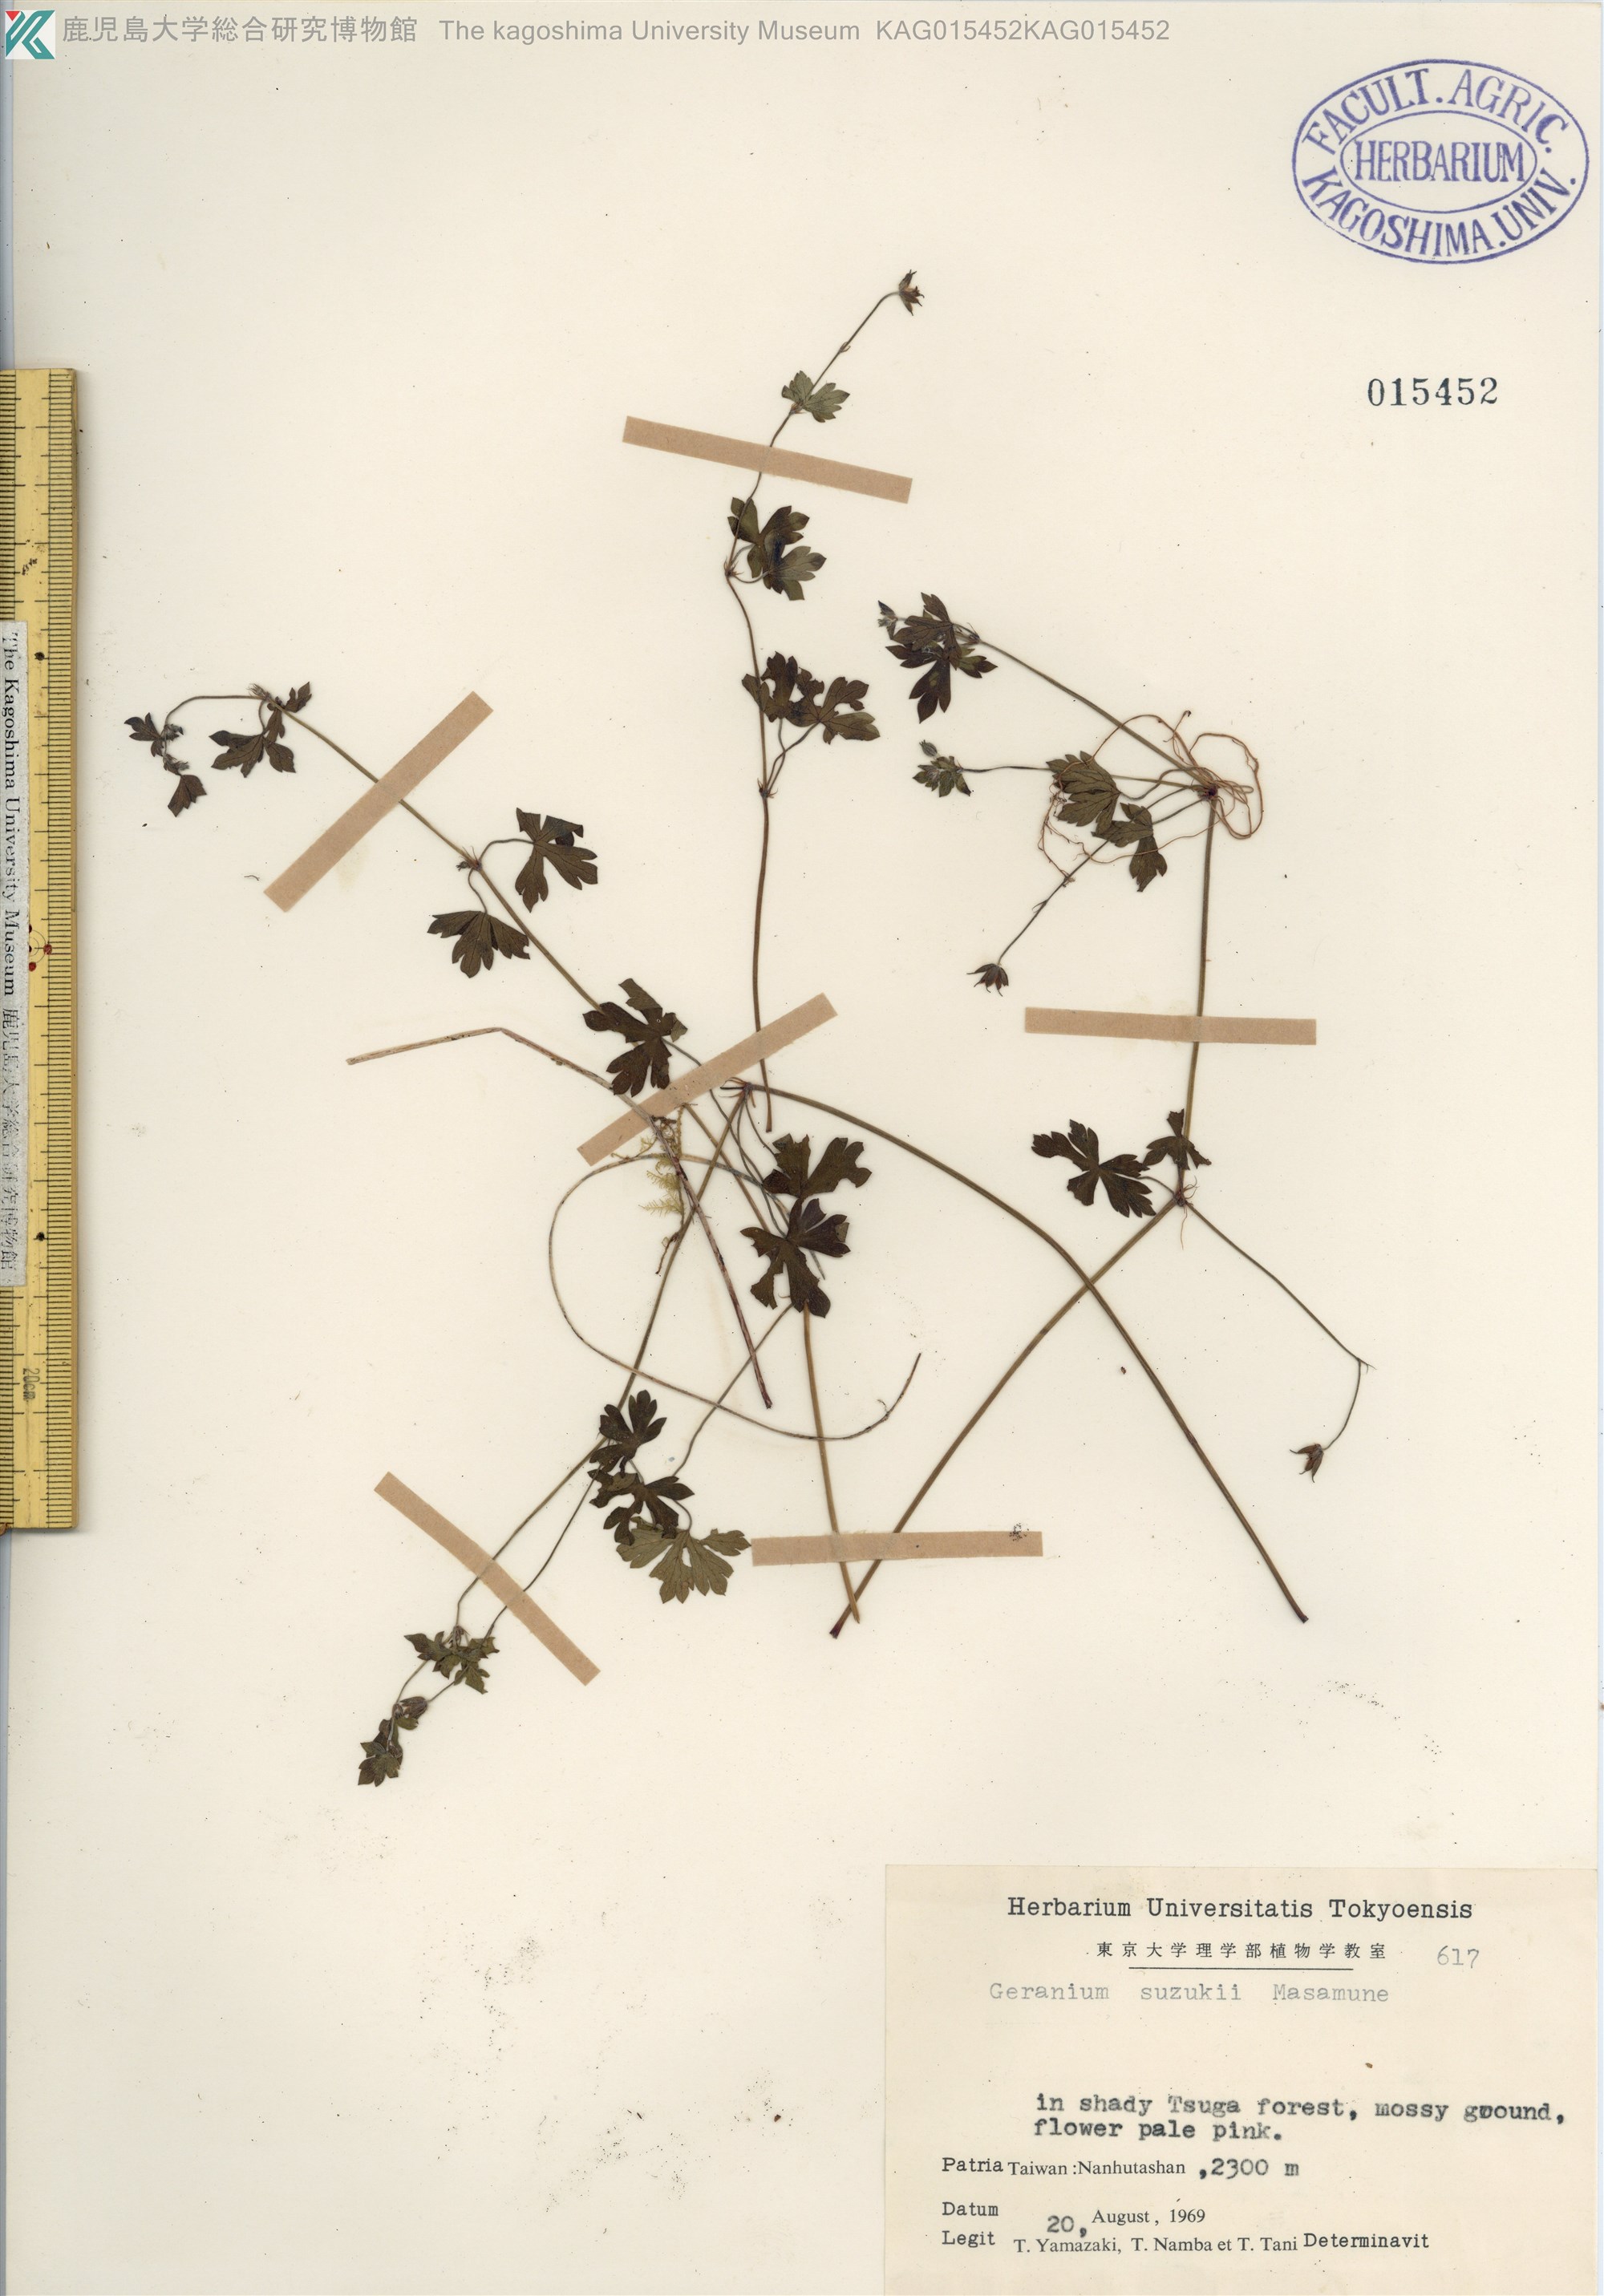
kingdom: Plantae
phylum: Tracheophyta
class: Magnoliopsida
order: Geraniales
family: Geraniaceae
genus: Geranium
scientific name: Geranium suzukii
